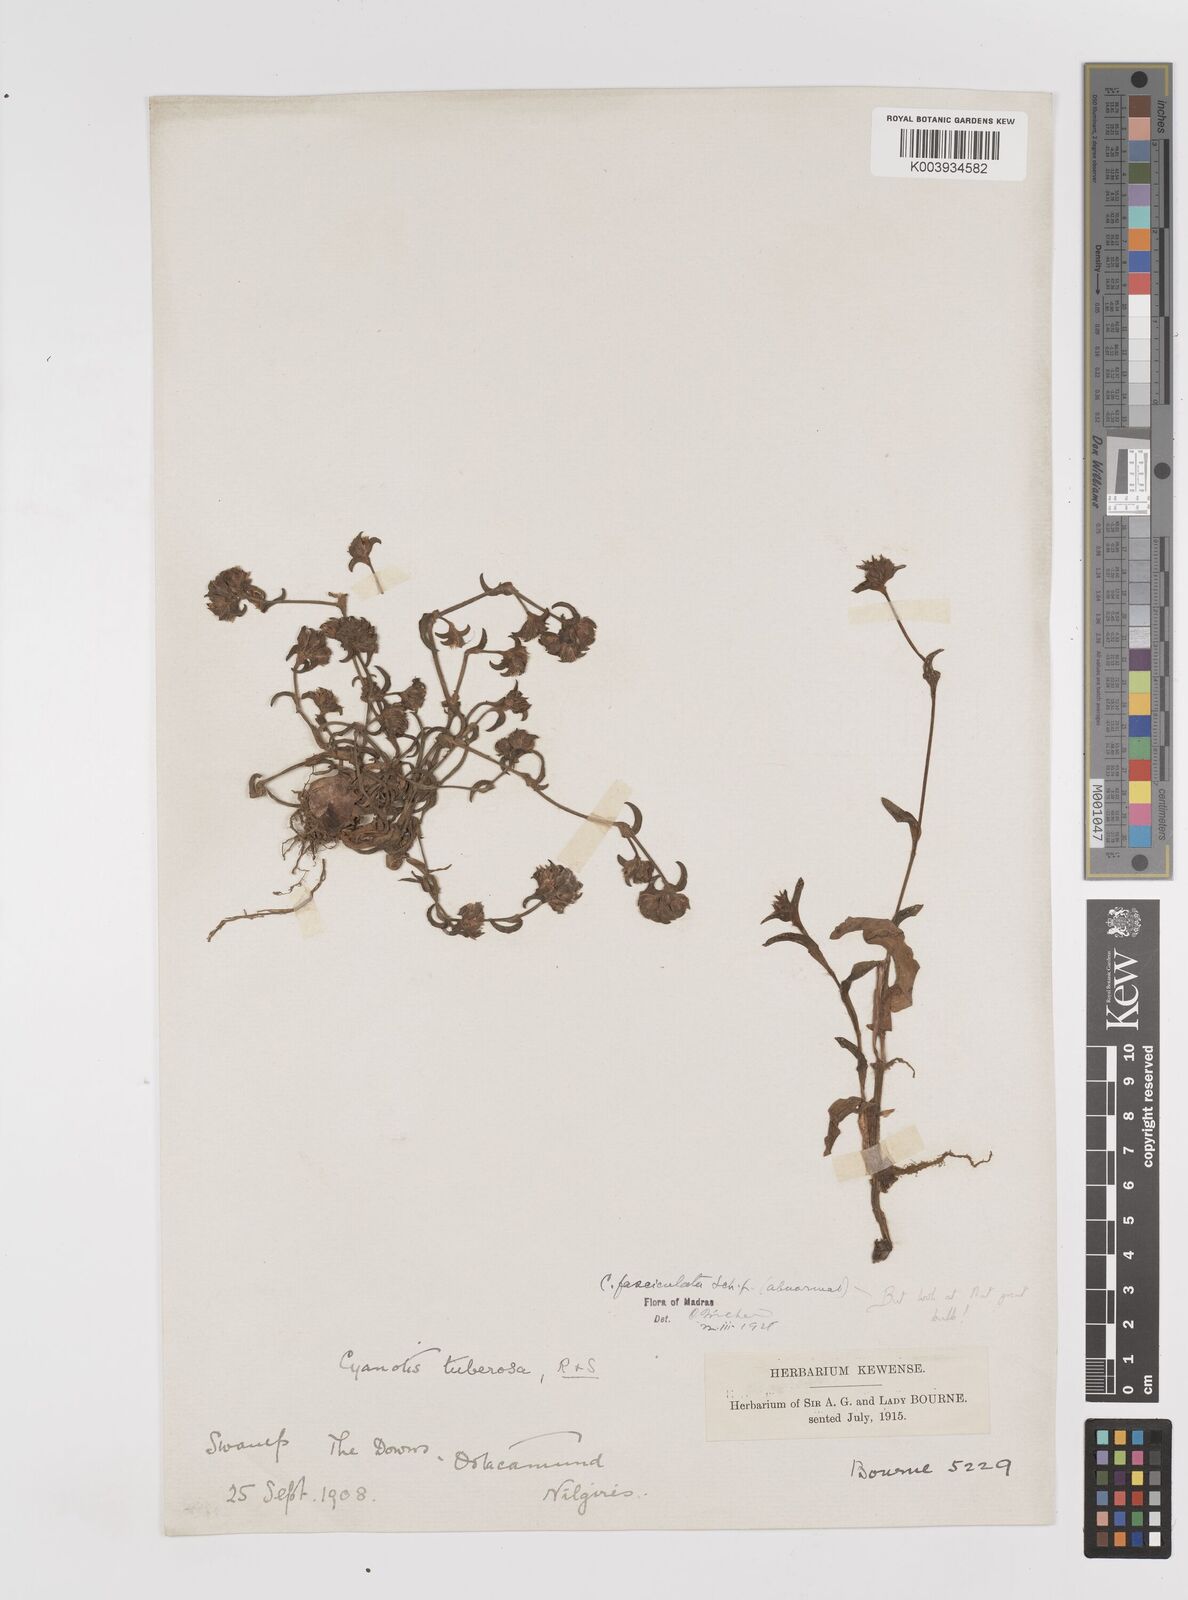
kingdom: Plantae
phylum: Tracheophyta
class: Liliopsida
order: Commelinales
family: Commelinaceae
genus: Cyanotis
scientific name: Cyanotis arachnoidea
